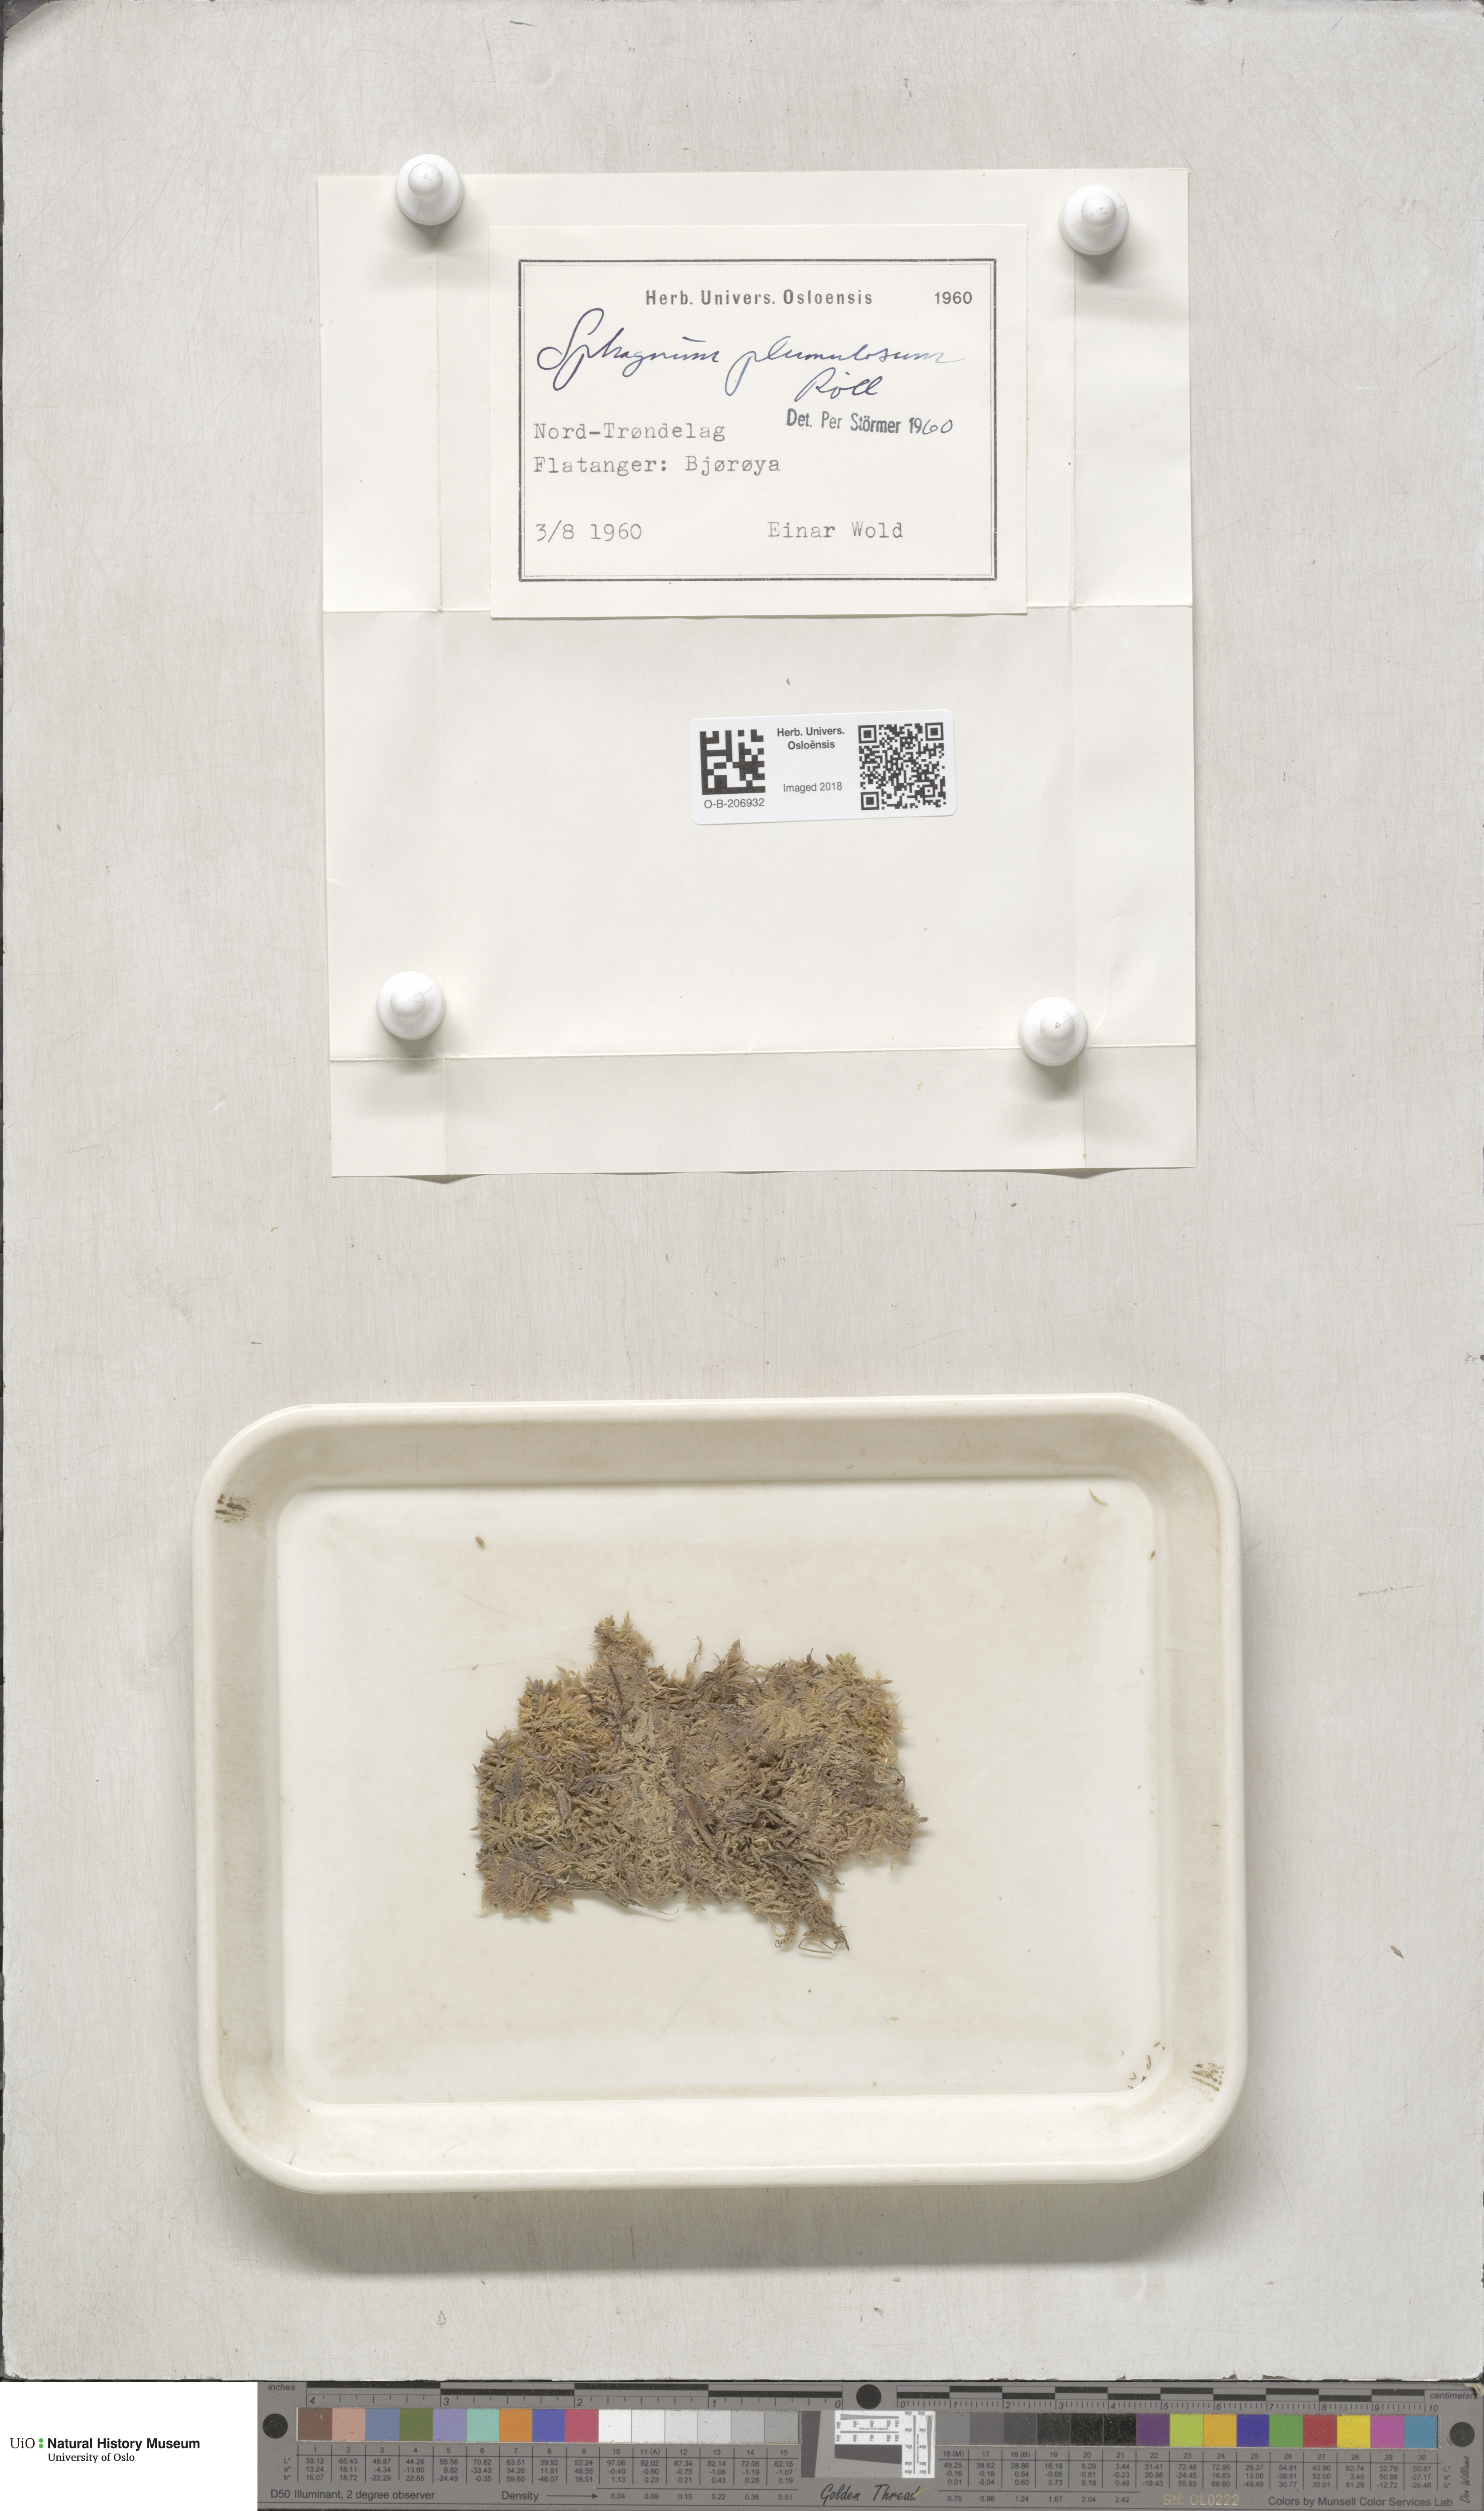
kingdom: Plantae
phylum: Bryophyta
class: Sphagnopsida
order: Sphagnales
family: Sphagnaceae
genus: Sphagnum
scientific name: Sphagnum subnitens
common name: Lustrous bog-moss
